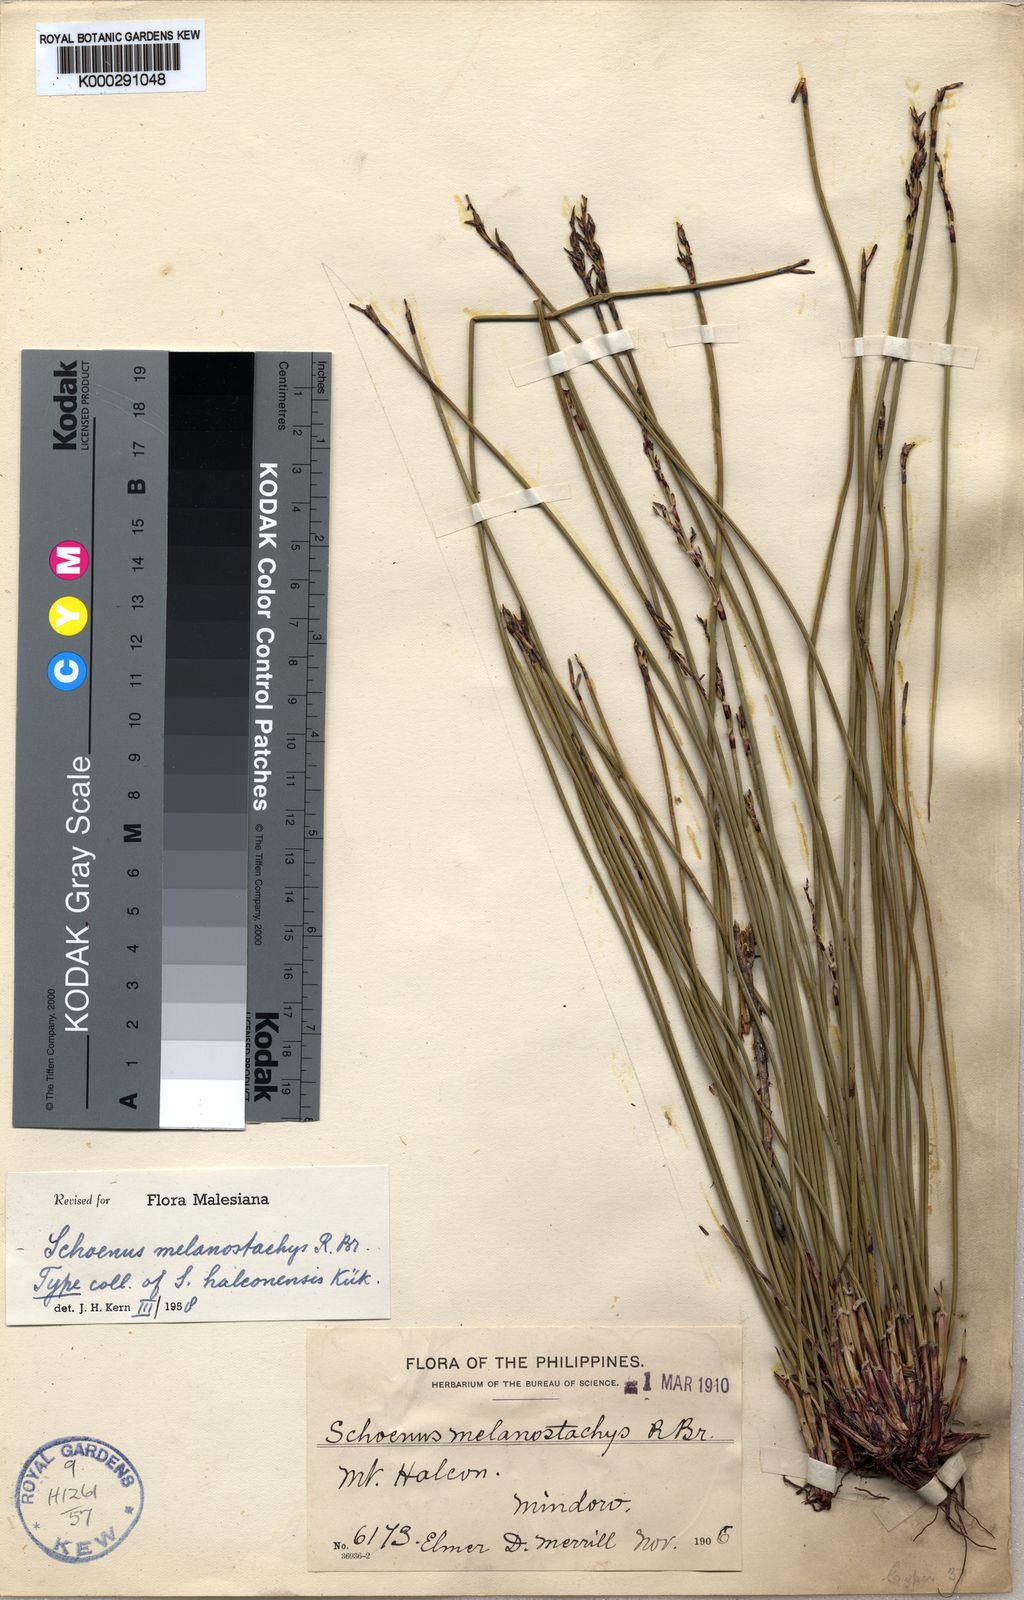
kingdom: Plantae
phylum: Tracheophyta
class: Liliopsida
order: Poales
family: Cyperaceae
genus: Schoenus
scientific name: Schoenus melanostachys
